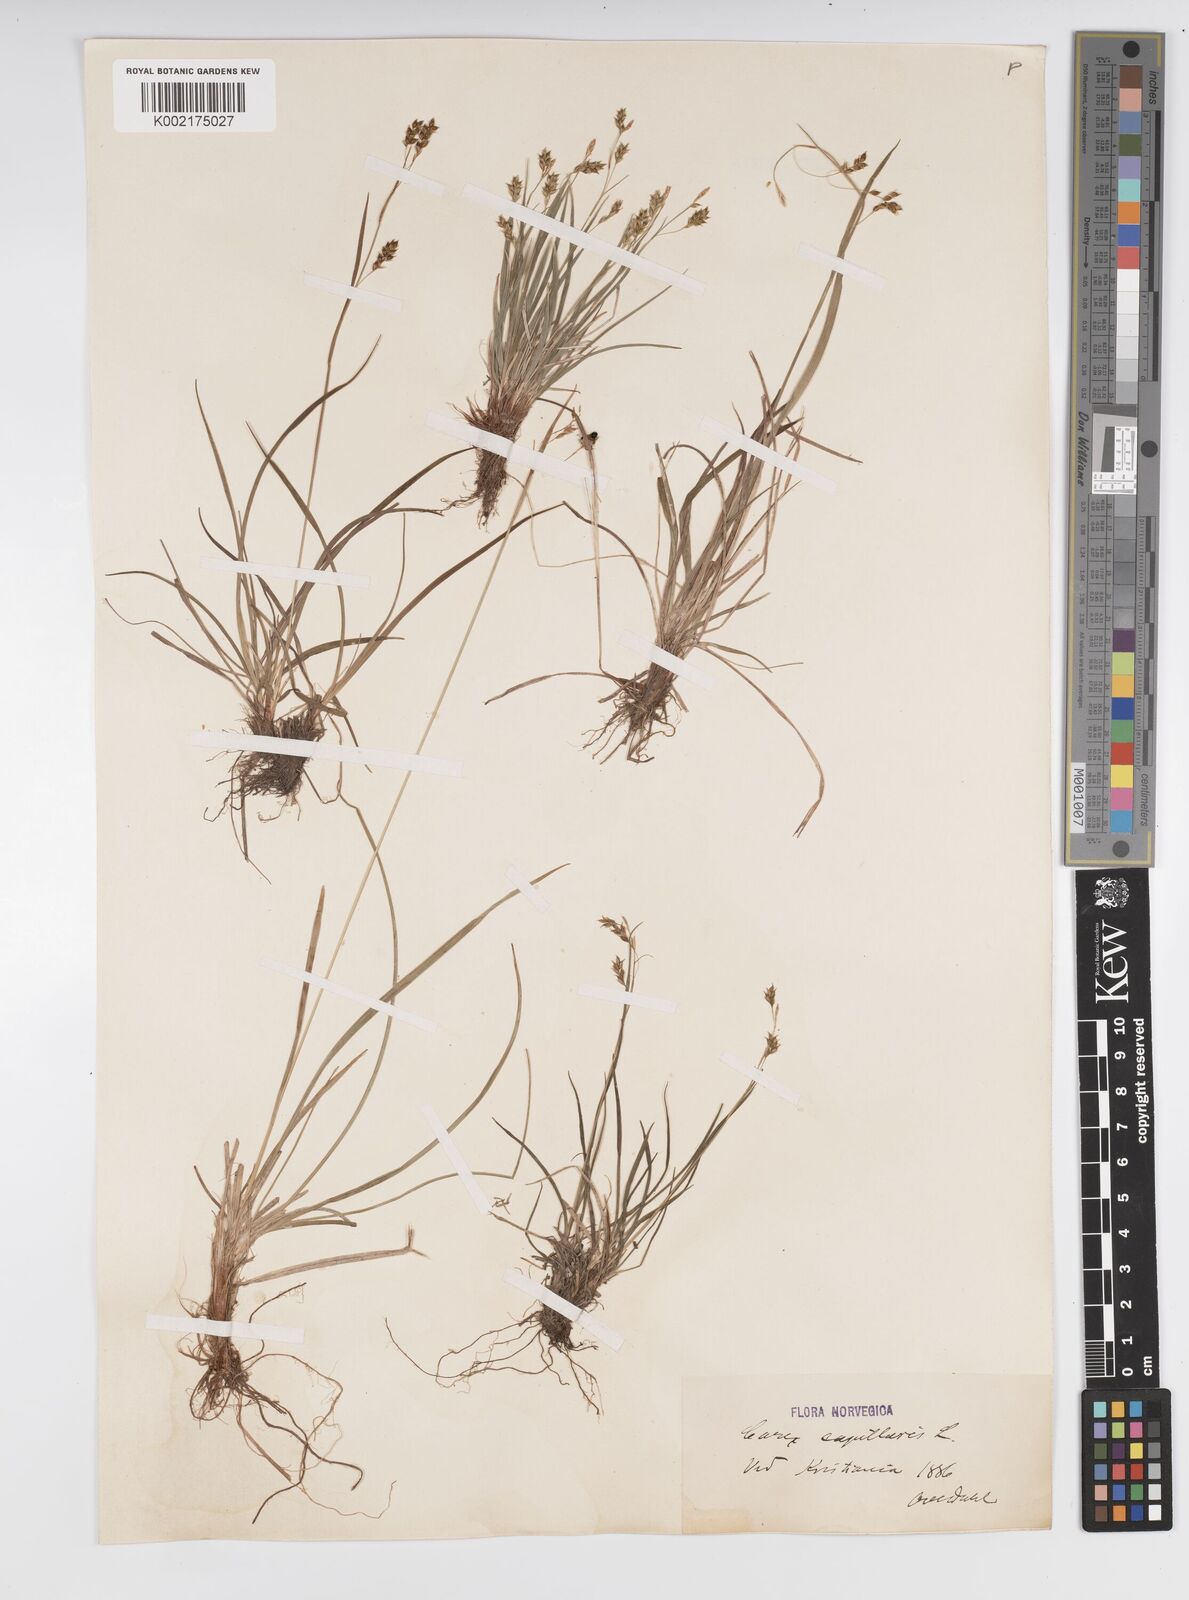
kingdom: Plantae
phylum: Tracheophyta
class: Liliopsida
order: Poales
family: Cyperaceae
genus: Carex
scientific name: Carex capillaris
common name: Hair sedge
